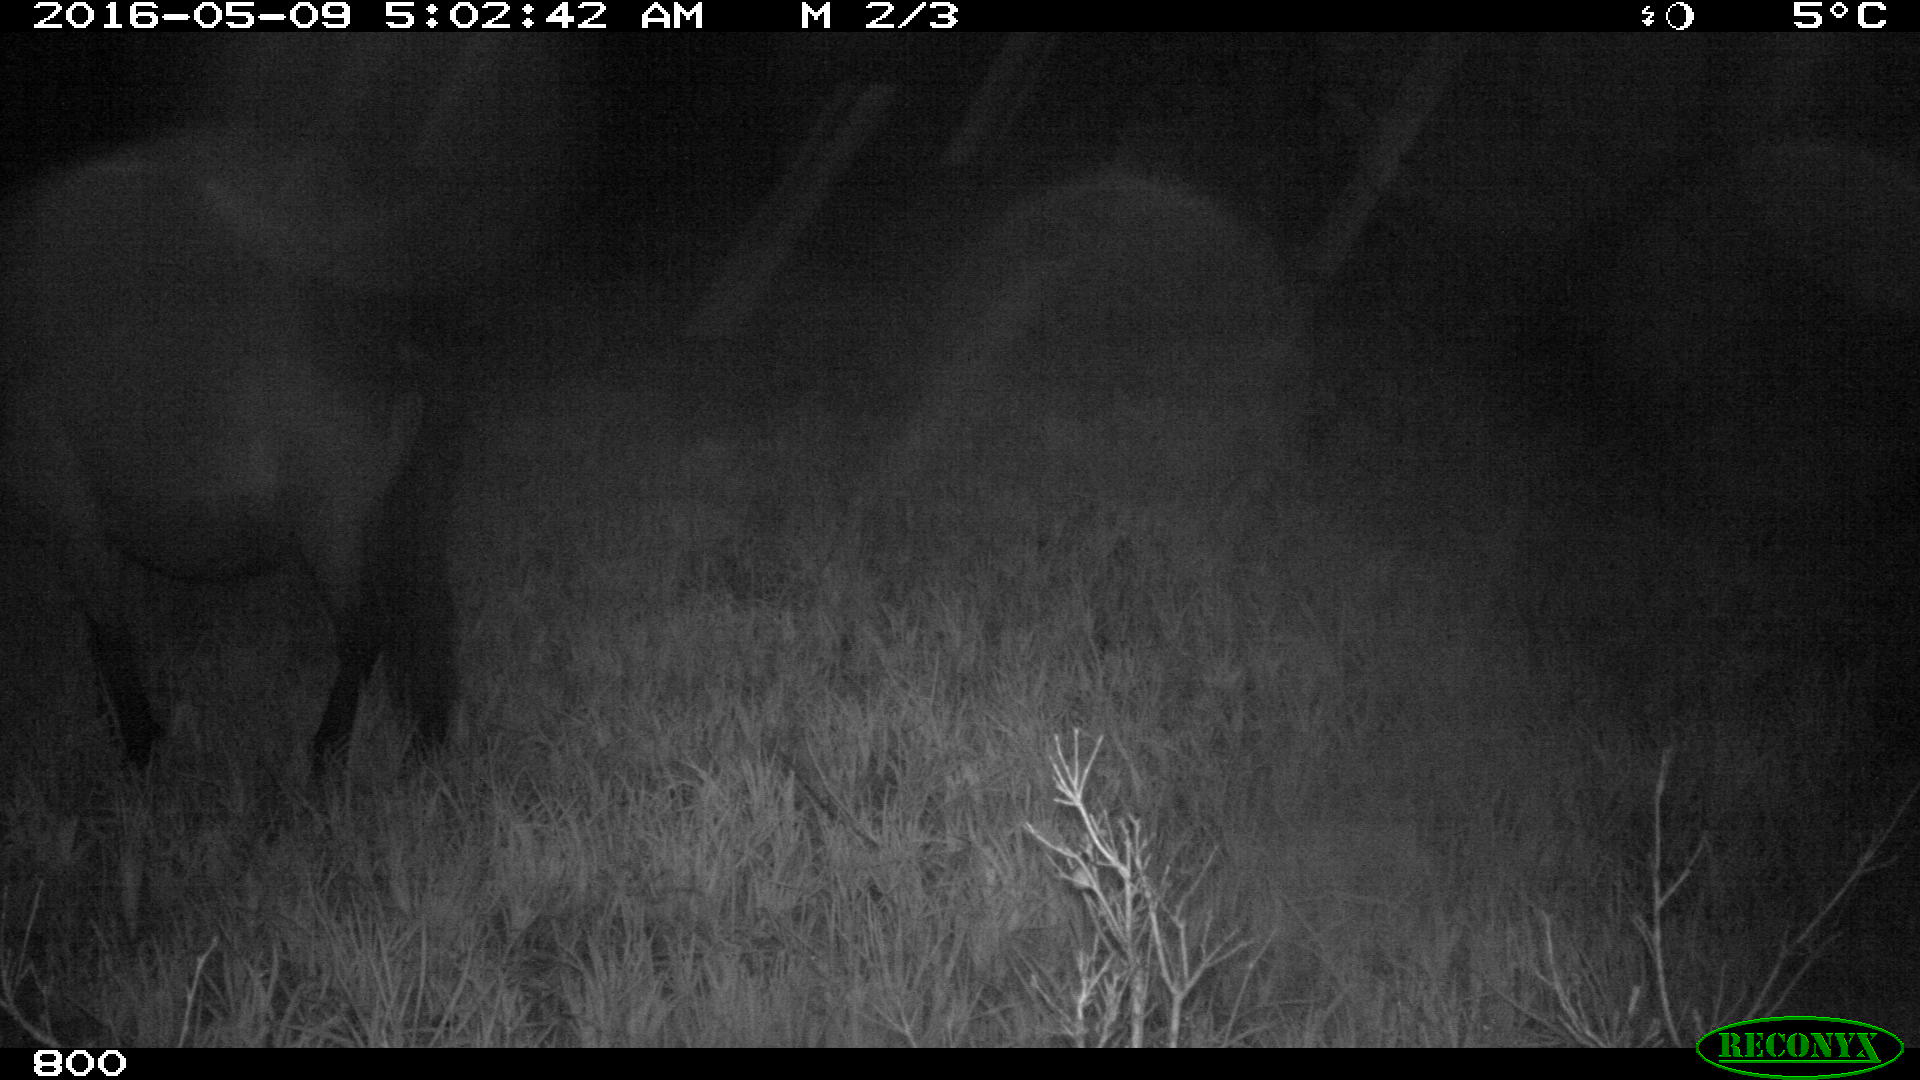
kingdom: Animalia
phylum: Chordata
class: Mammalia
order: Perissodactyla
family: Equidae
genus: Equus
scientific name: Equus caballus
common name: Horse
